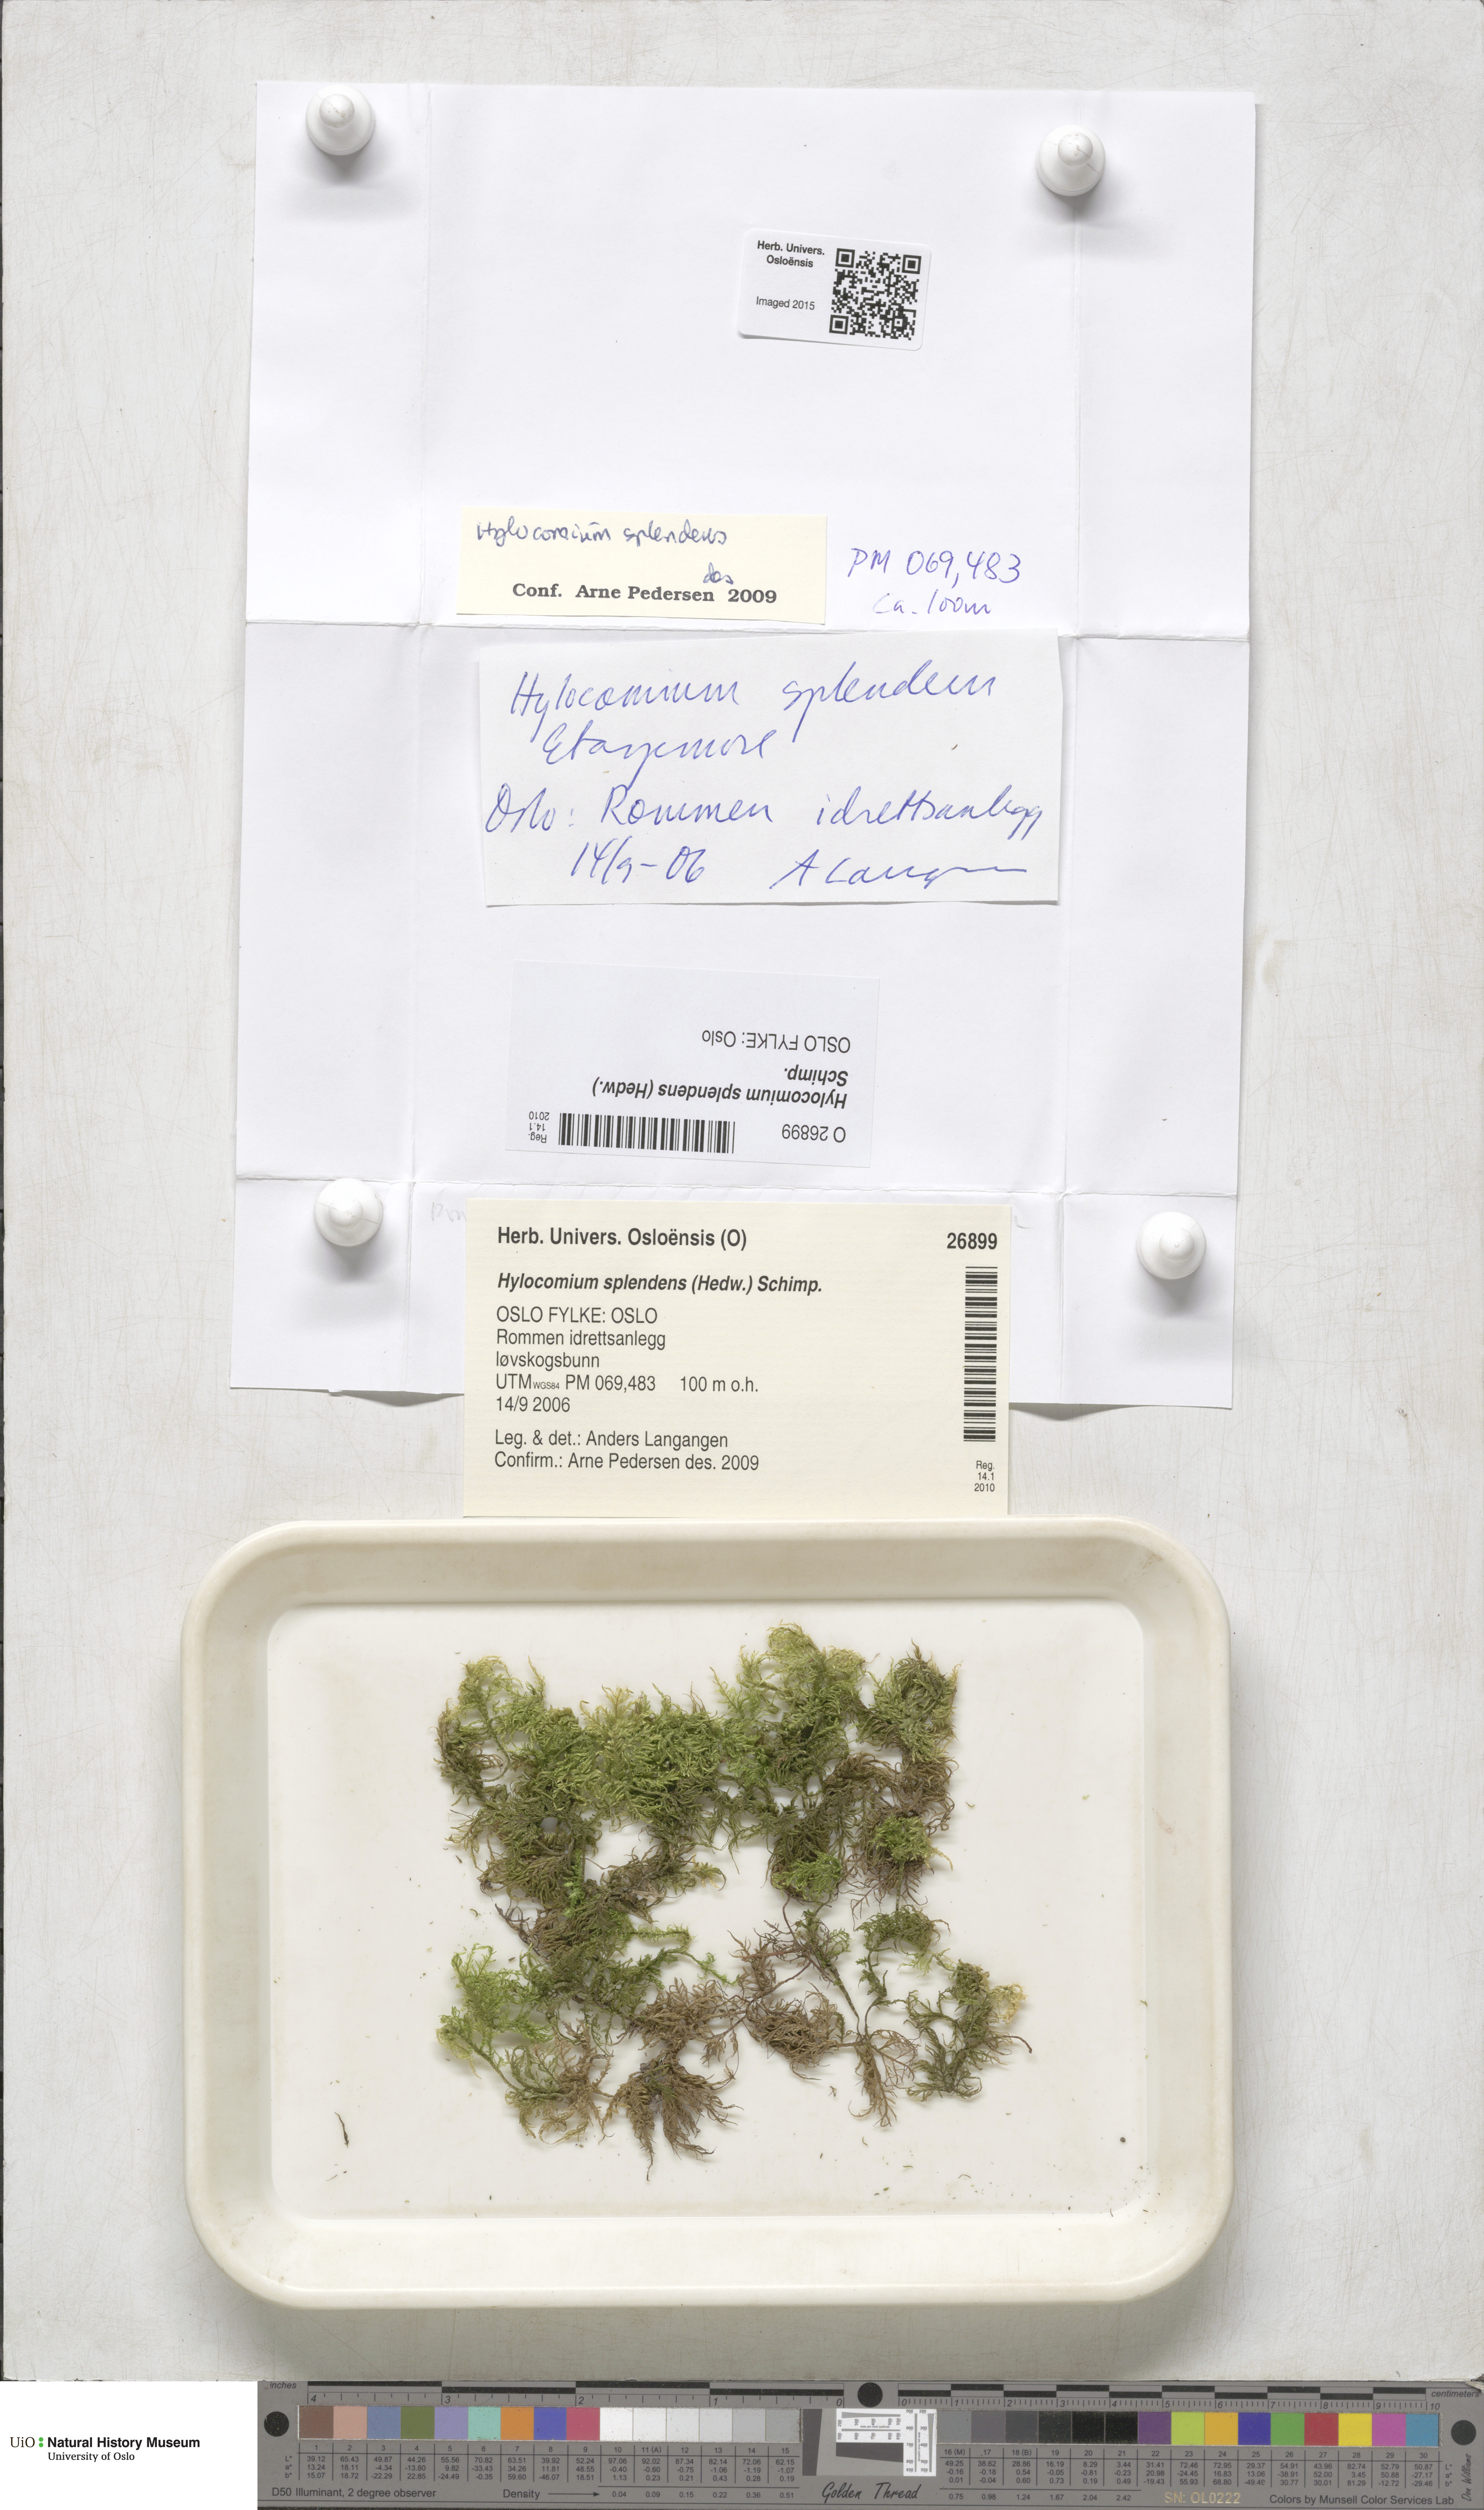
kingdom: Plantae
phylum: Bryophyta
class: Bryopsida
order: Hypnales
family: Hylocomiaceae
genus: Hylocomium
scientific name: Hylocomium splendens
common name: Stairstep moss
